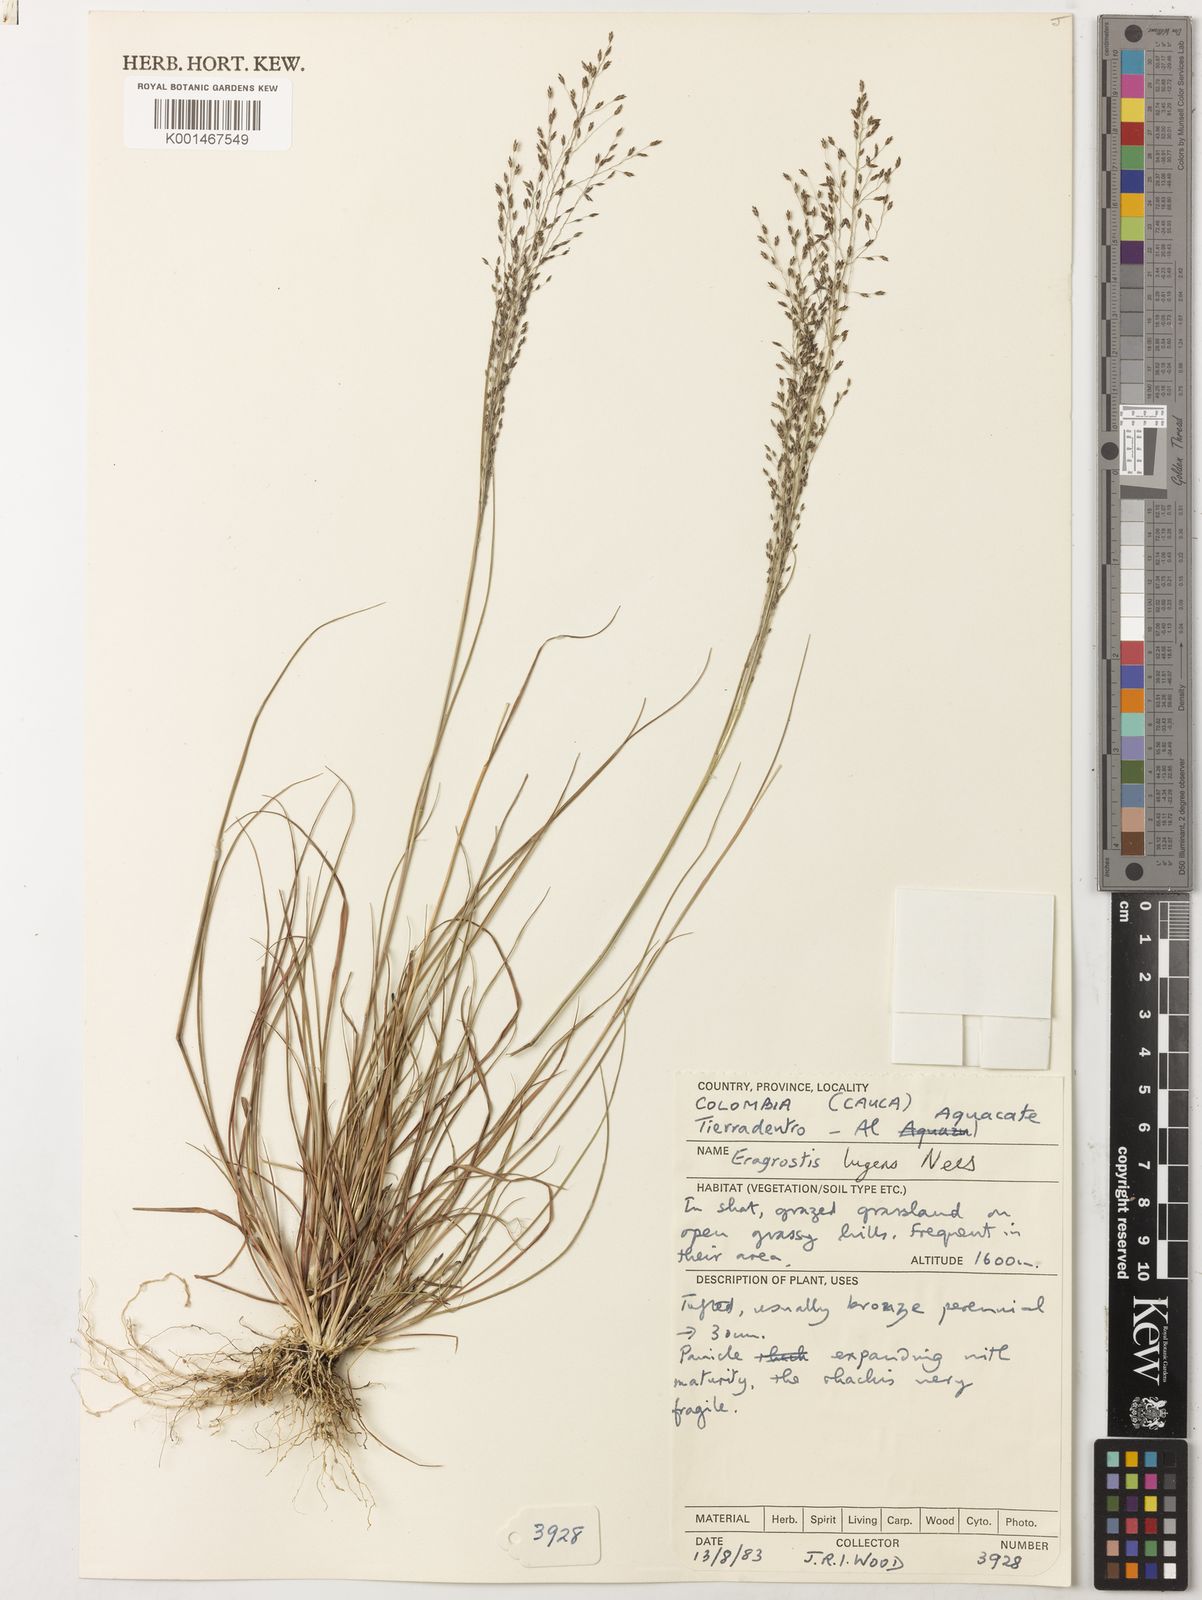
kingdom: Plantae
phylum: Tracheophyta
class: Liliopsida
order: Poales
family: Poaceae
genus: Eragrostis
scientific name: Eragrostis lugens
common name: Mourning love grass
